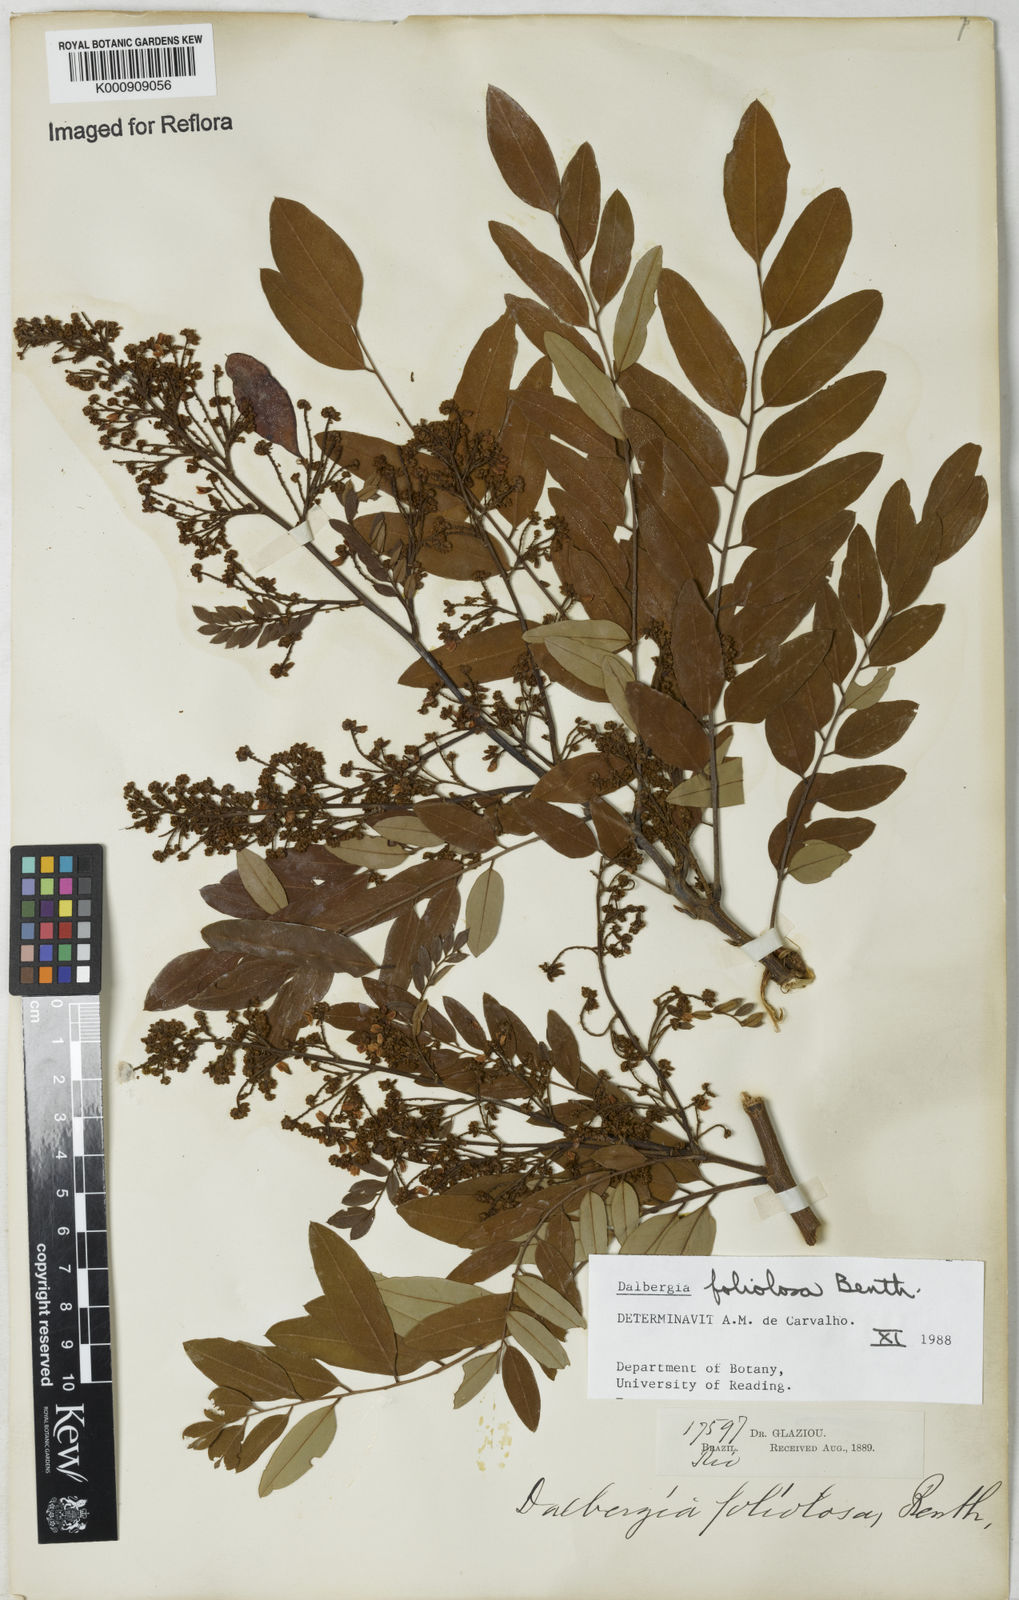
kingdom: Plantae
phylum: Tracheophyta
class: Magnoliopsida
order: Fabales
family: Fabaceae
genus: Dalbergia
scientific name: Dalbergia foliolosa
